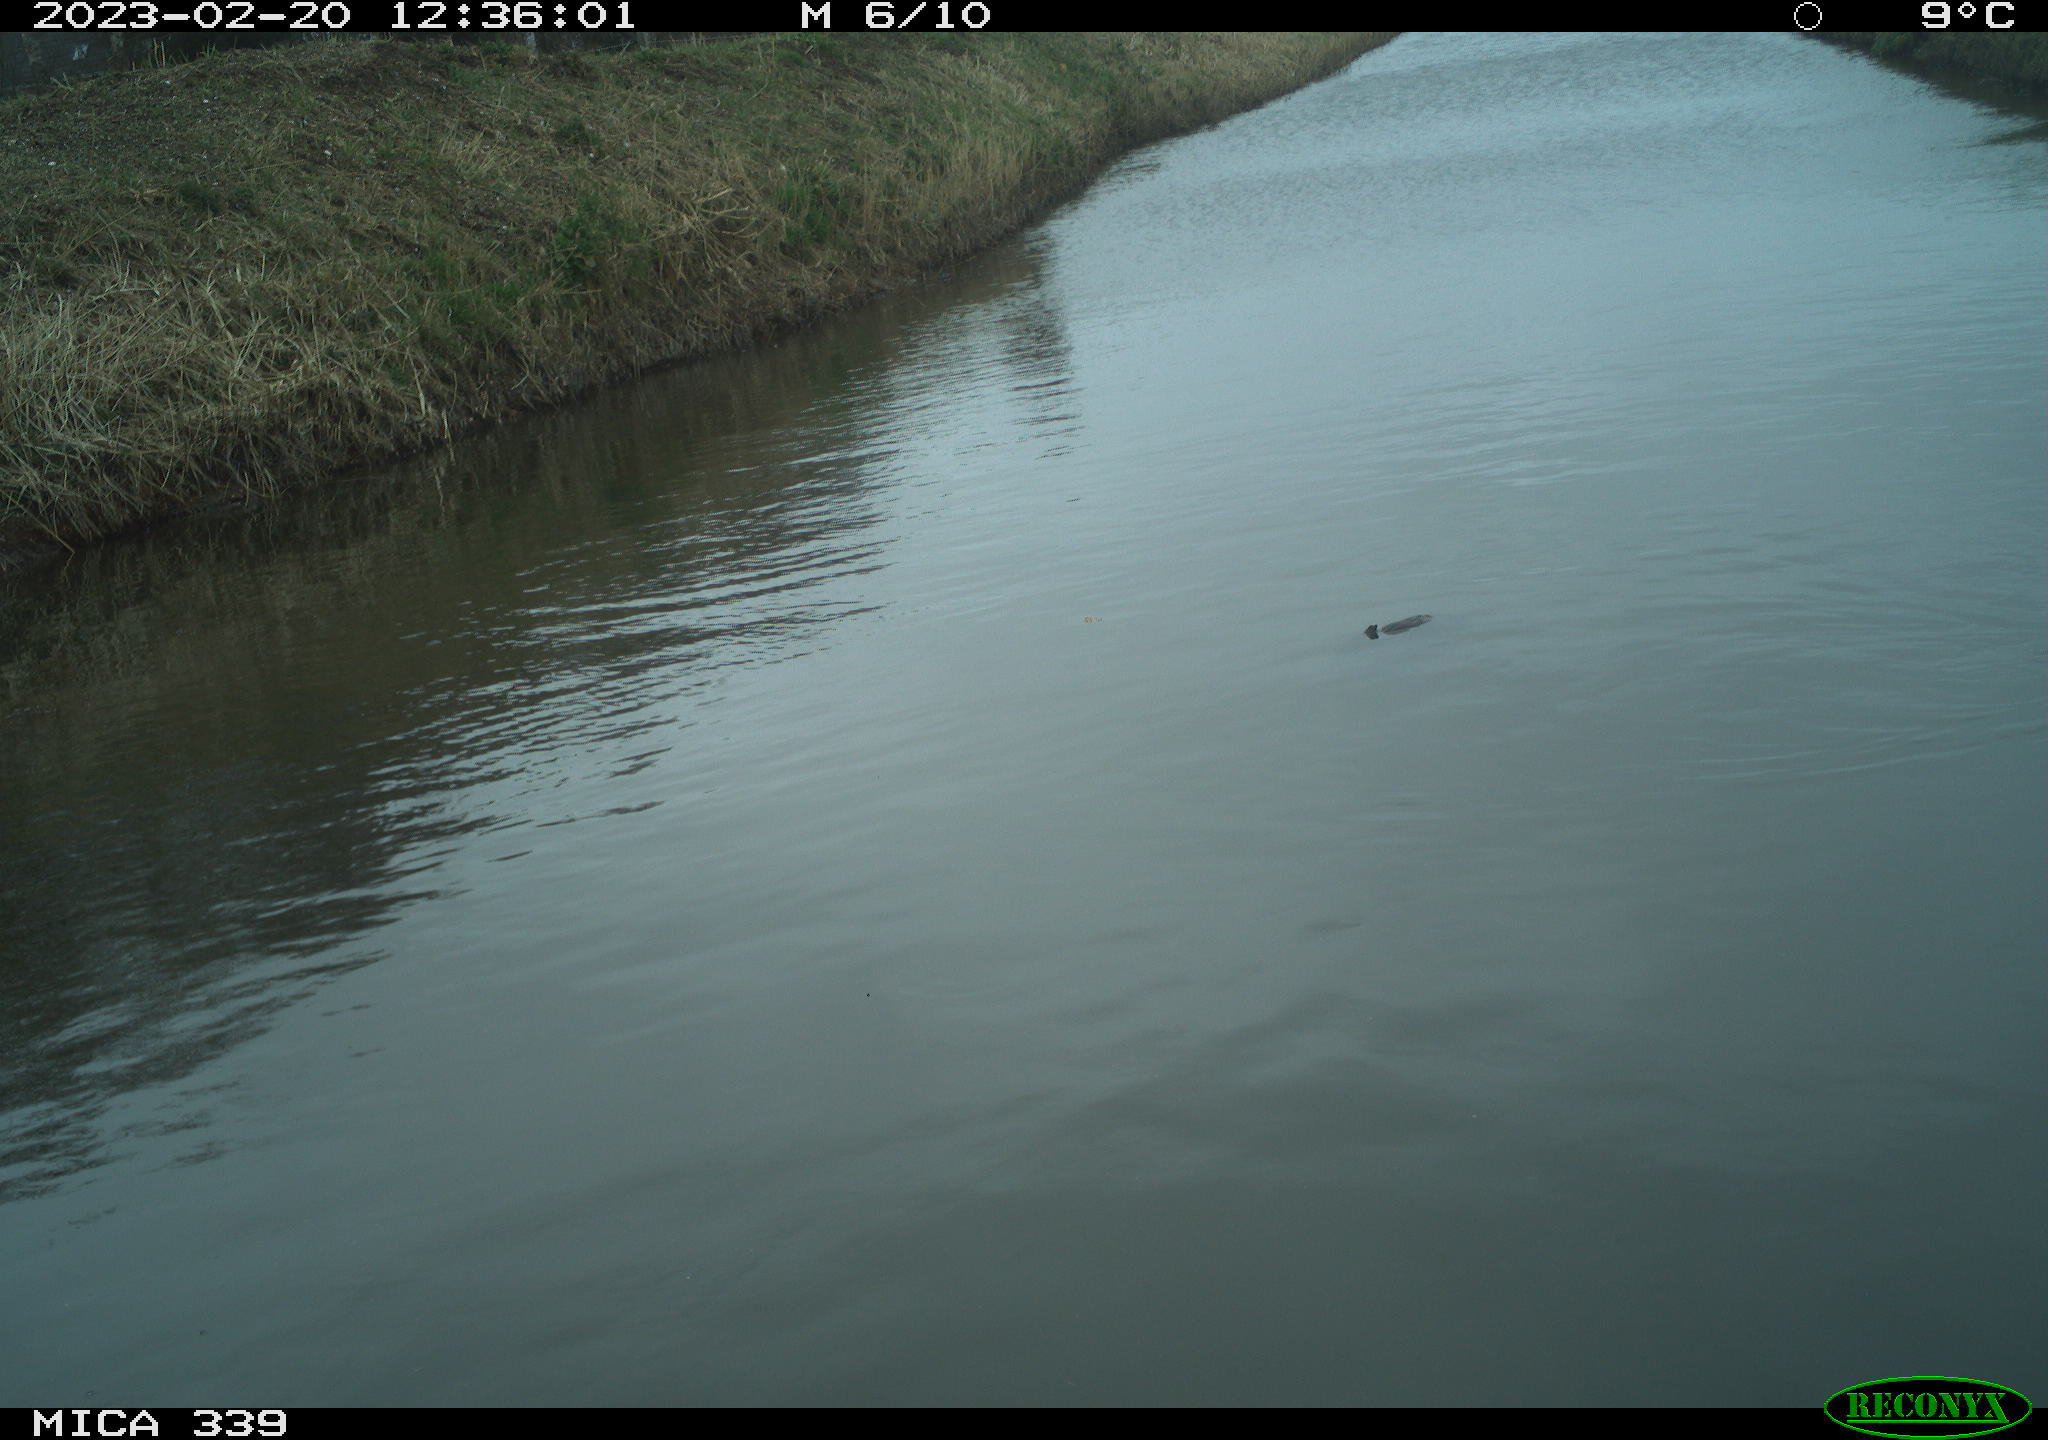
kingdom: Animalia
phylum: Chordata
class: Aves
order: Gruiformes
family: Rallidae
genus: Gallinula
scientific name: Gallinula chloropus
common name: Common moorhen
